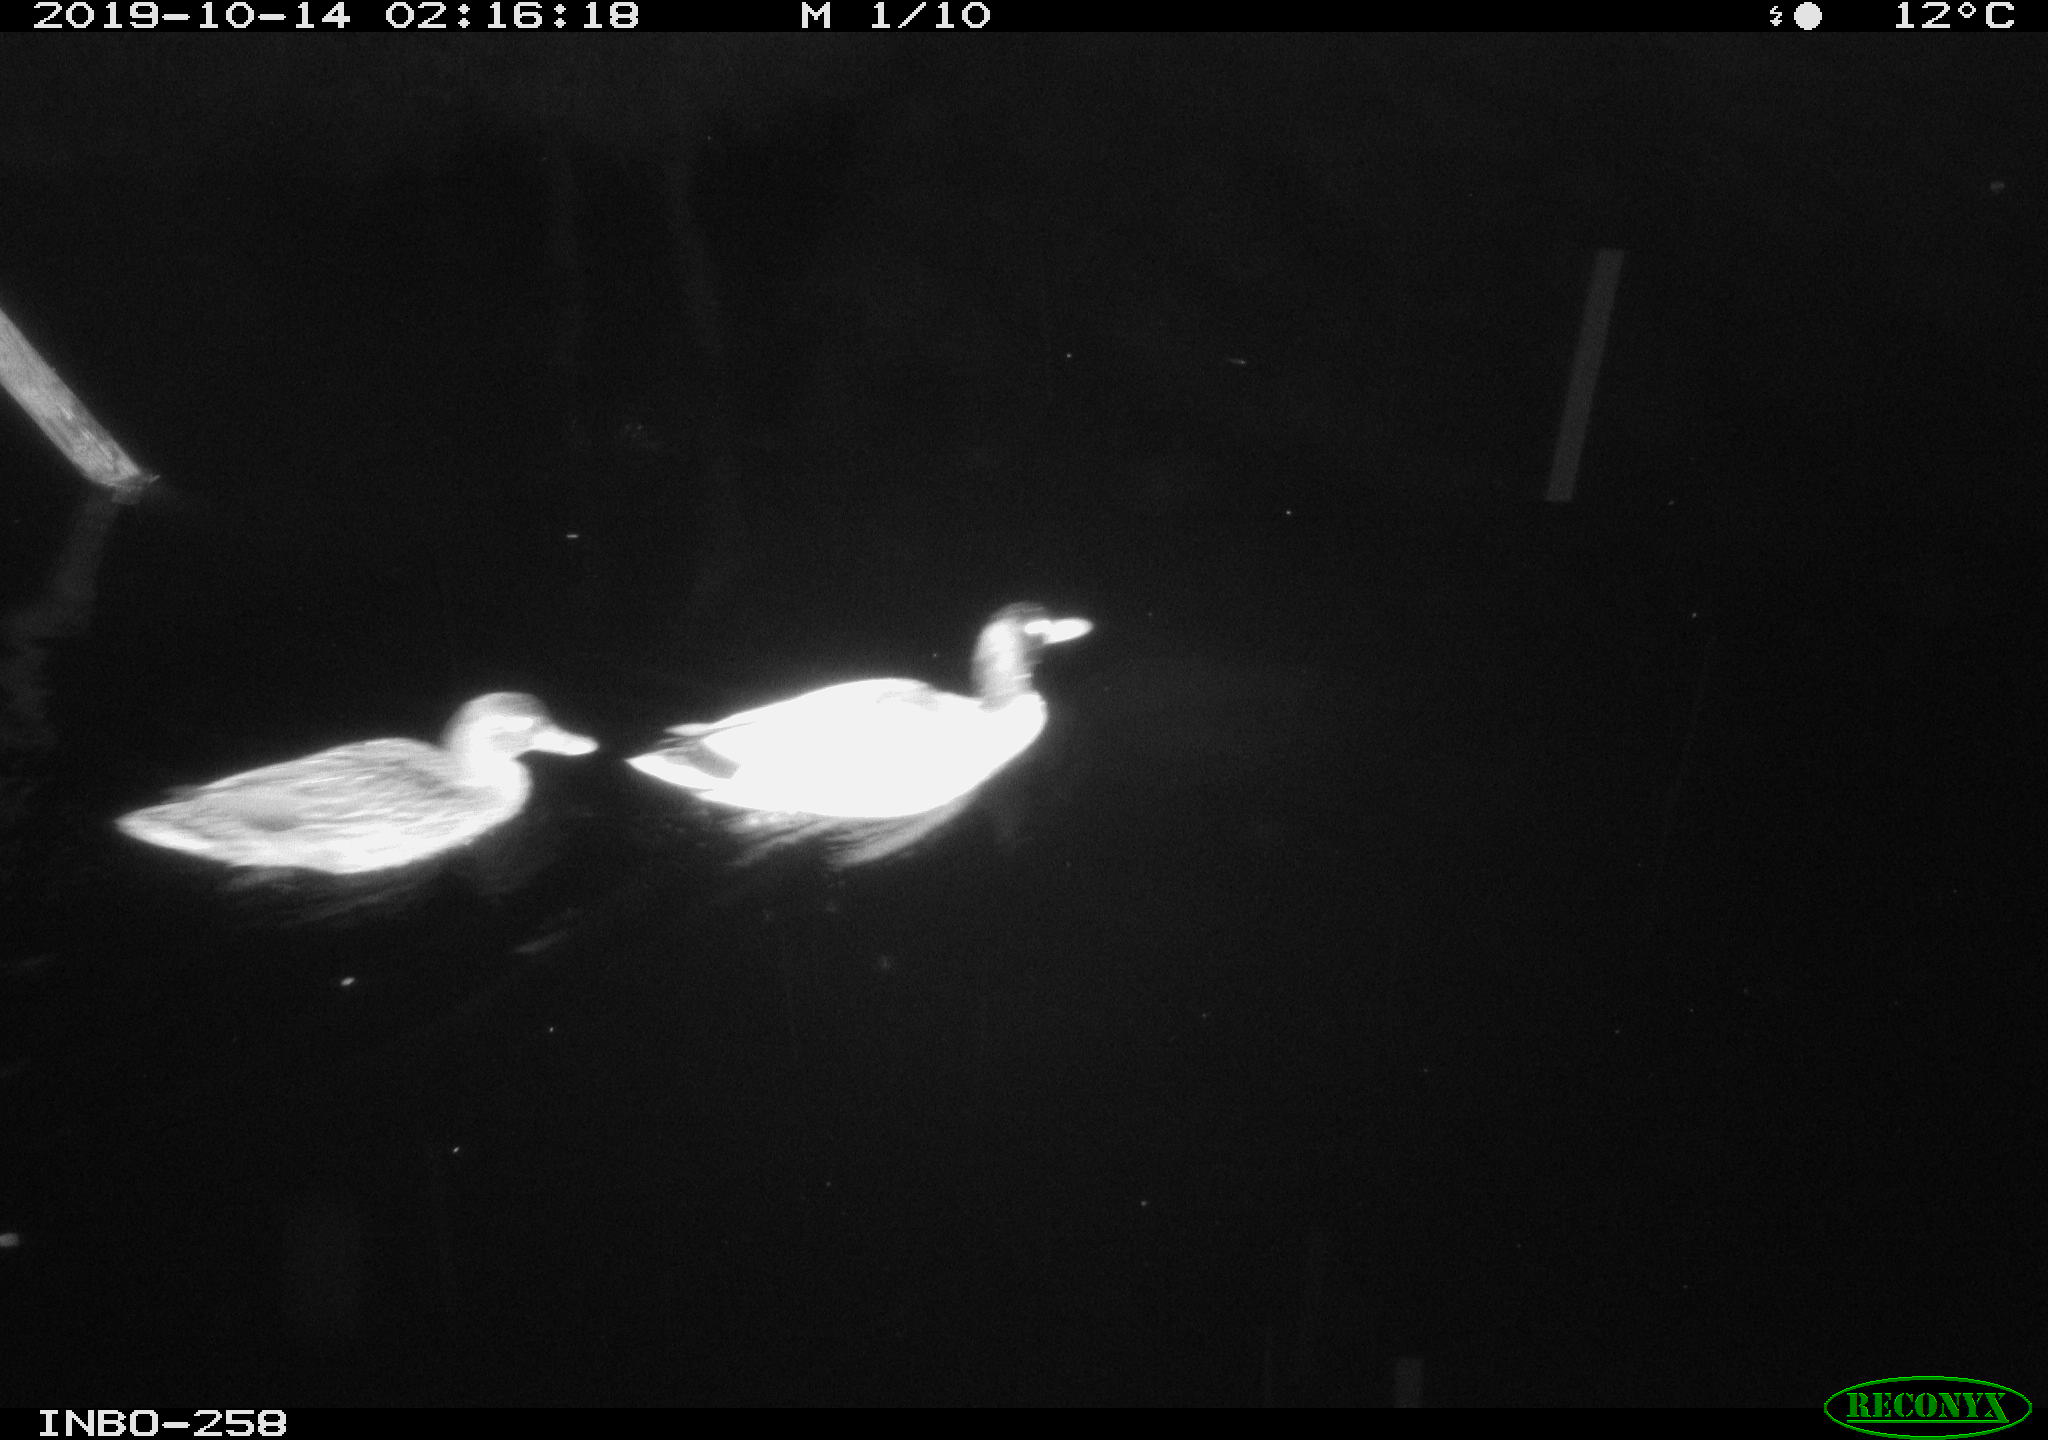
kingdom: Animalia
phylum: Chordata
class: Aves
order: Anseriformes
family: Anatidae
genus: Anas
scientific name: Anas platyrhynchos
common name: Mallard
